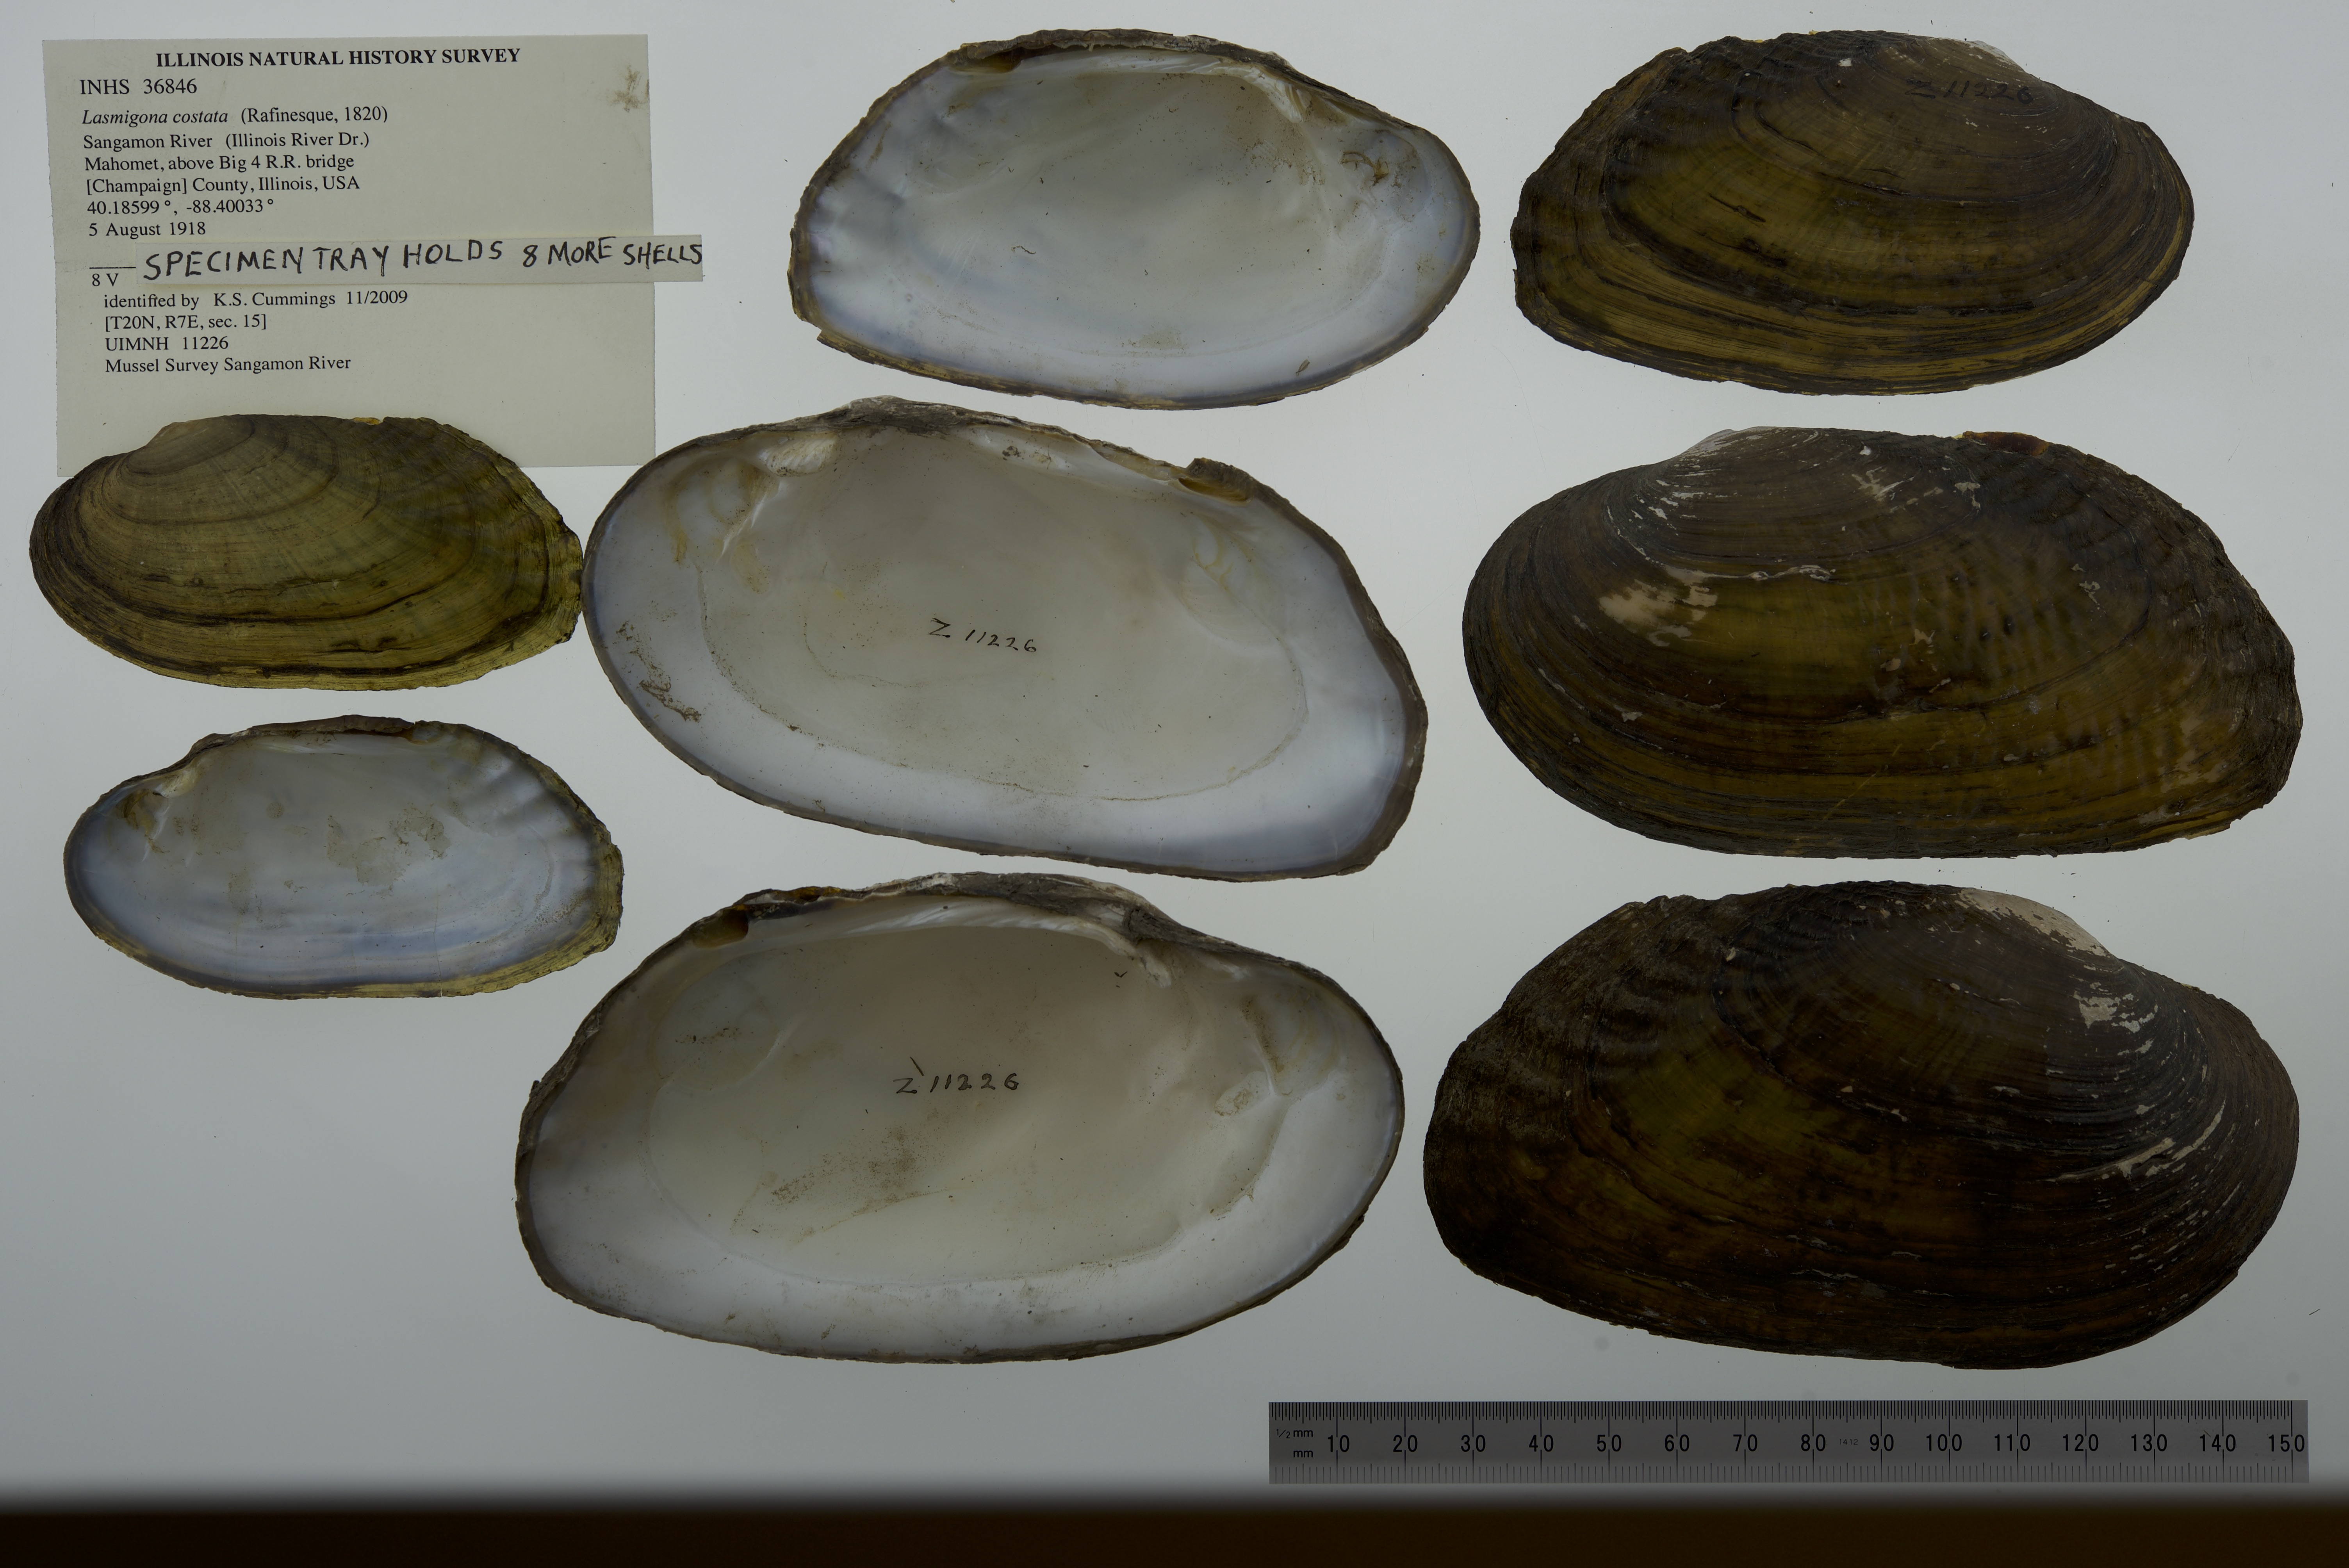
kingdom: Animalia
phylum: Mollusca
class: Bivalvia
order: Unionida
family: Unionidae
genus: Lasmigona
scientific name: Lasmigona costata
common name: Flutedshell
